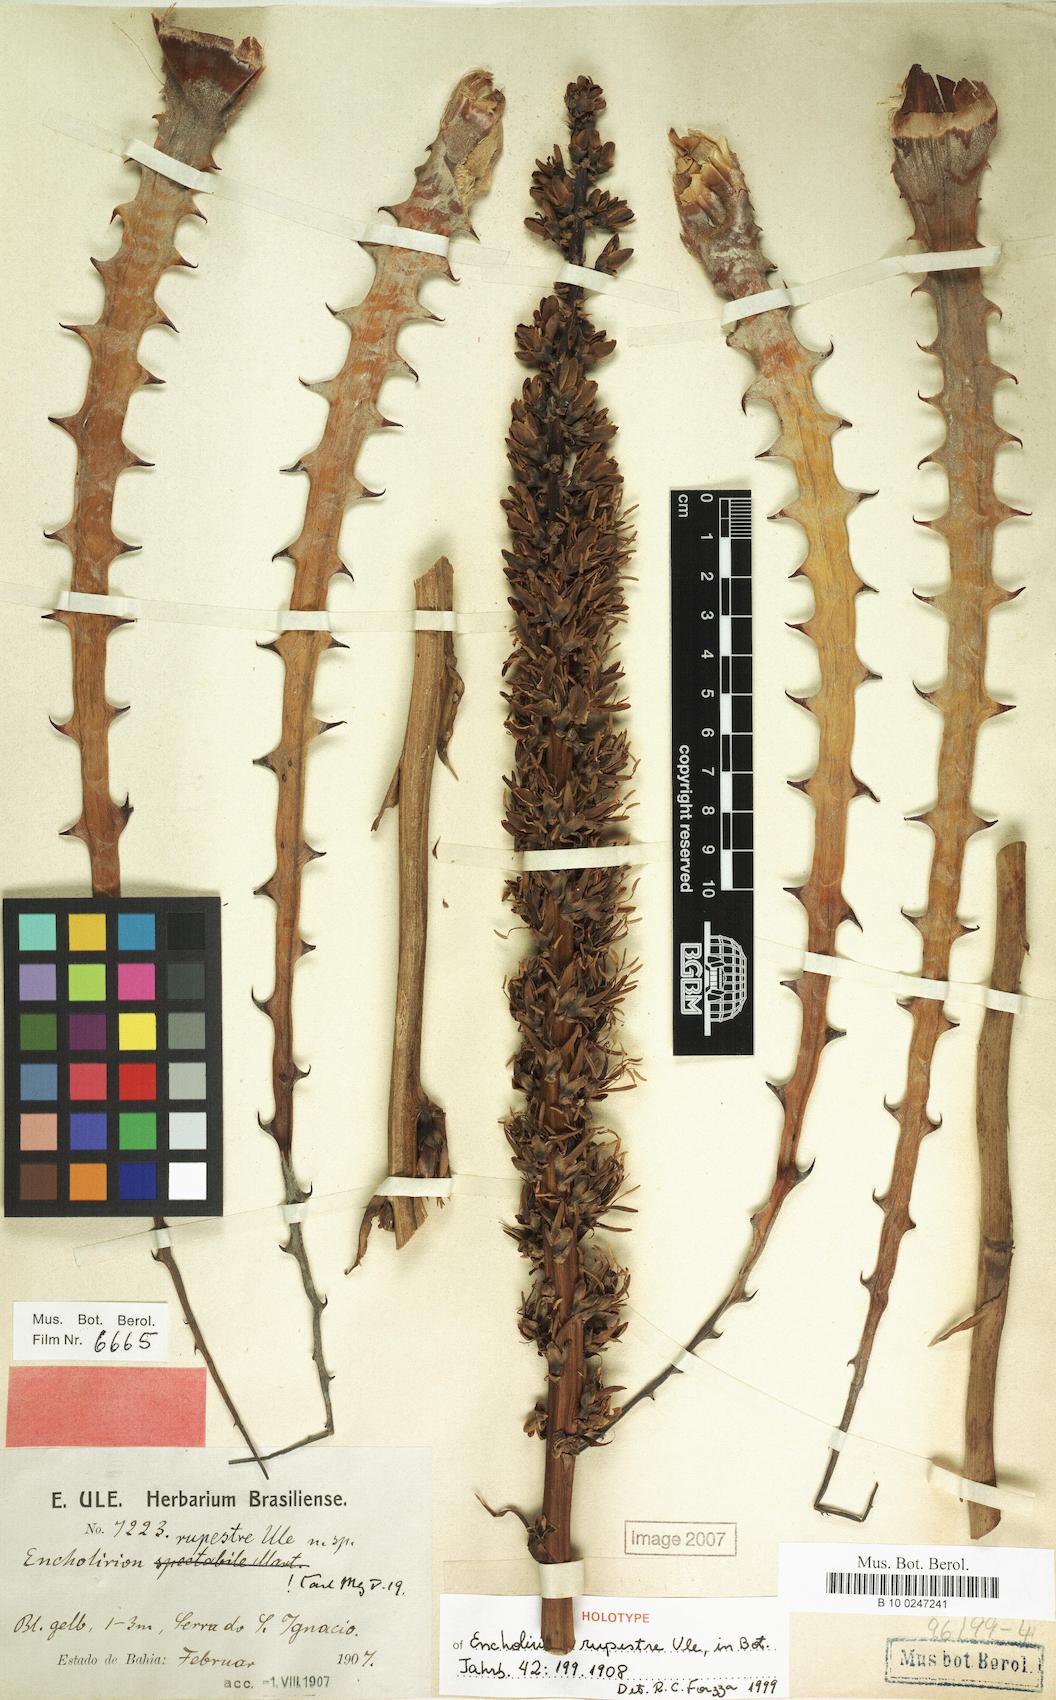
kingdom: Plantae
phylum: Tracheophyta
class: Liliopsida
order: Poales
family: Bromeliaceae
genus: Encholirium
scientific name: Encholirium spectabile
